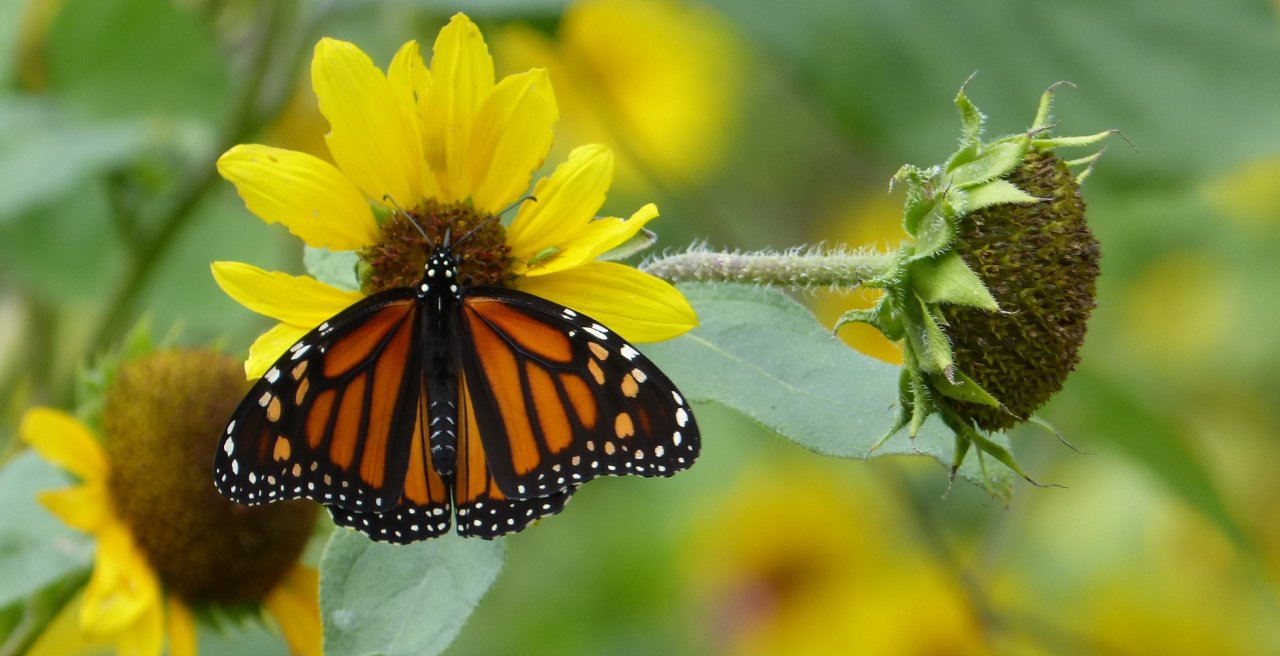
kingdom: Animalia
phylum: Arthropoda
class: Insecta
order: Lepidoptera
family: Nymphalidae
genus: Danaus
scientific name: Danaus plexippus
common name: Monarch
